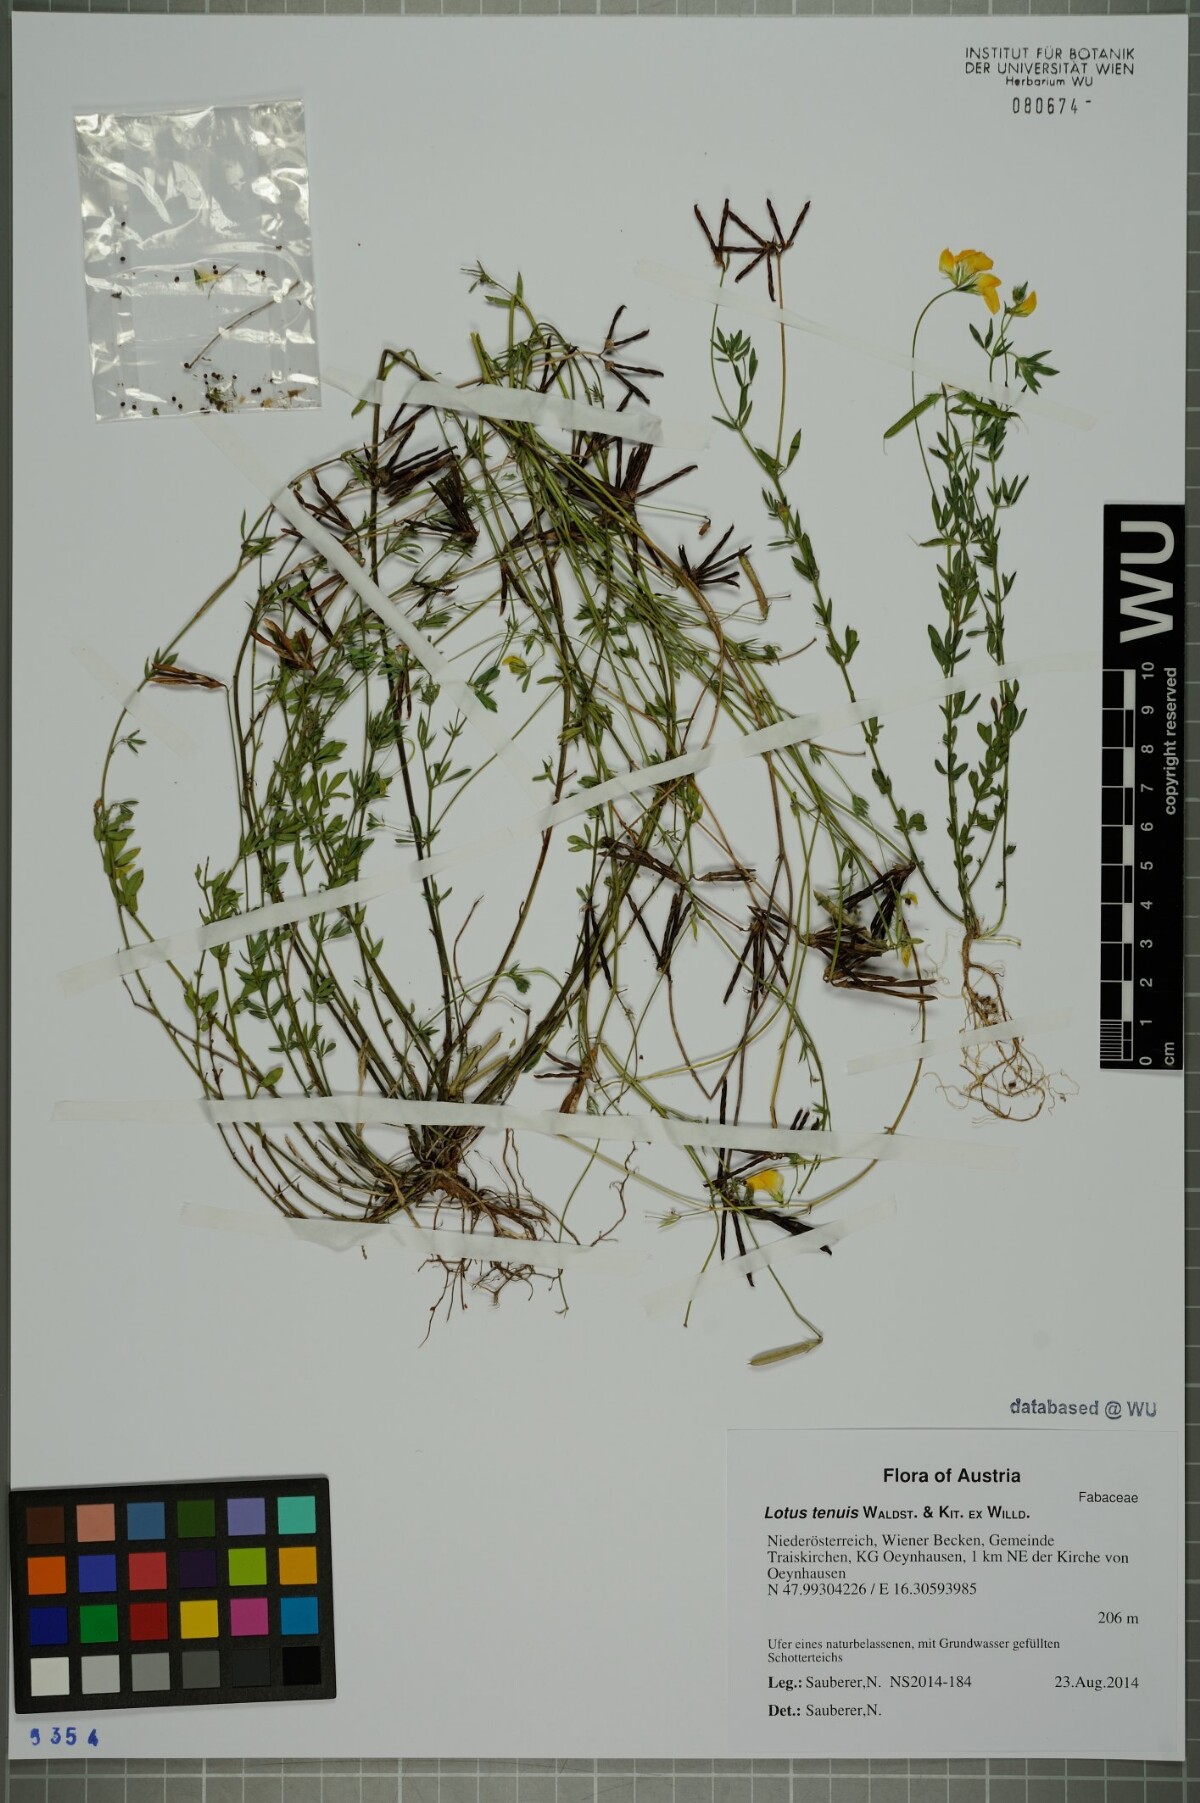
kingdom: Plantae
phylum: Tracheophyta
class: Magnoliopsida
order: Fabales
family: Fabaceae
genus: Lotus
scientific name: Lotus tenuis
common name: Narrow-leaved bird's-foot-trefoil
